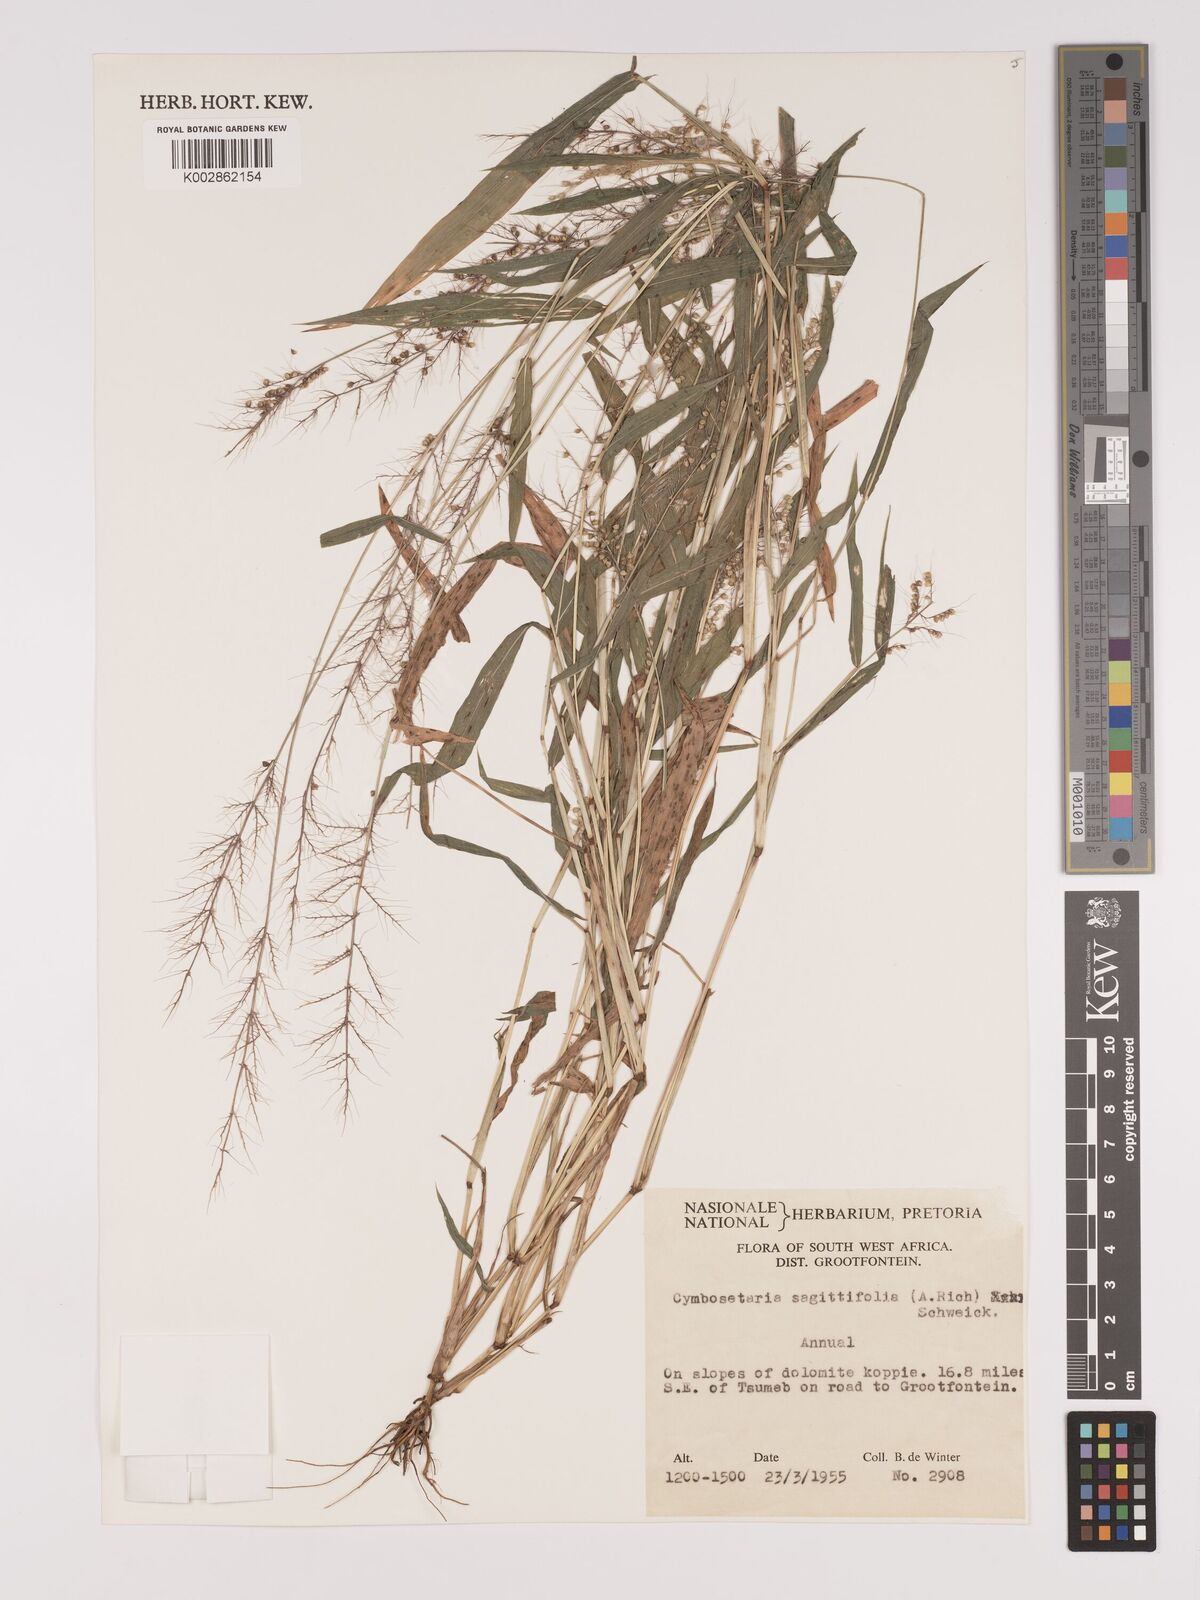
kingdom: Plantae
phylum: Tracheophyta
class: Liliopsida
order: Poales
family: Poaceae
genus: Setaria
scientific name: Setaria sagittifolia
